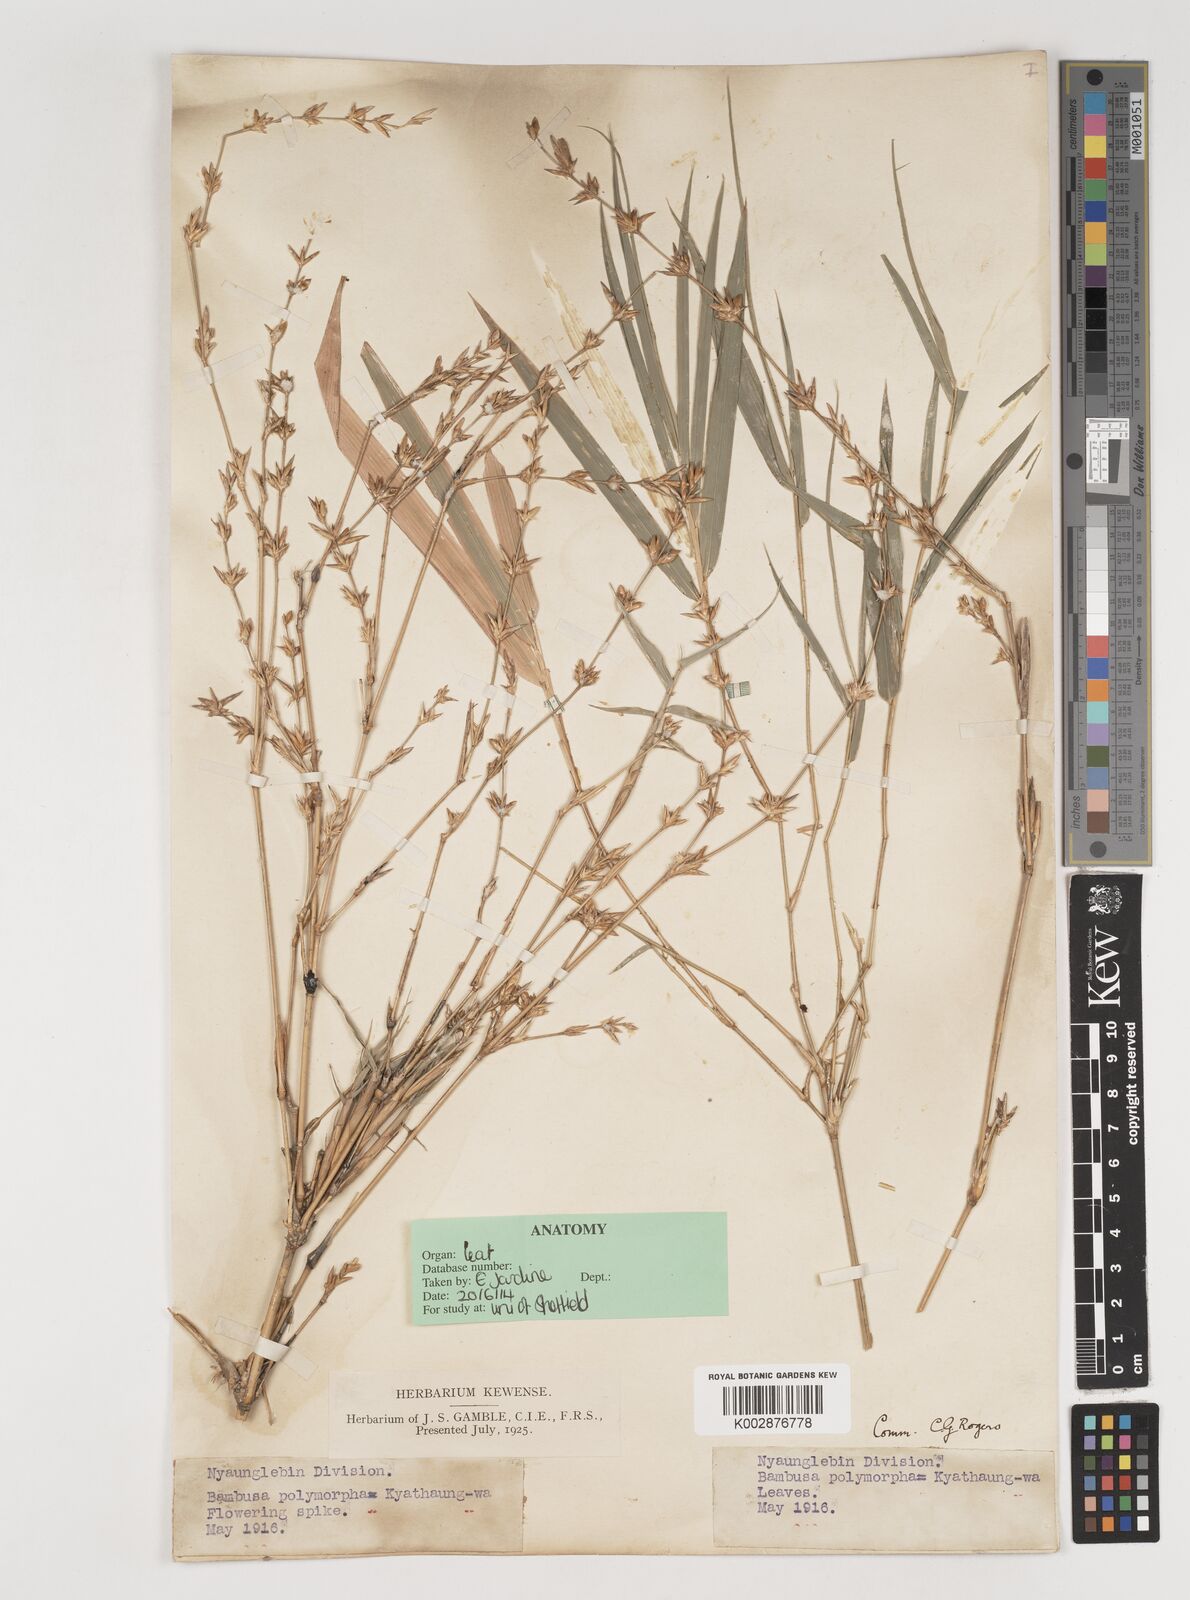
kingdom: Plantae
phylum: Tracheophyta
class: Liliopsida
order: Poales
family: Poaceae
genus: Bambusa
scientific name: Bambusa polymorpha
